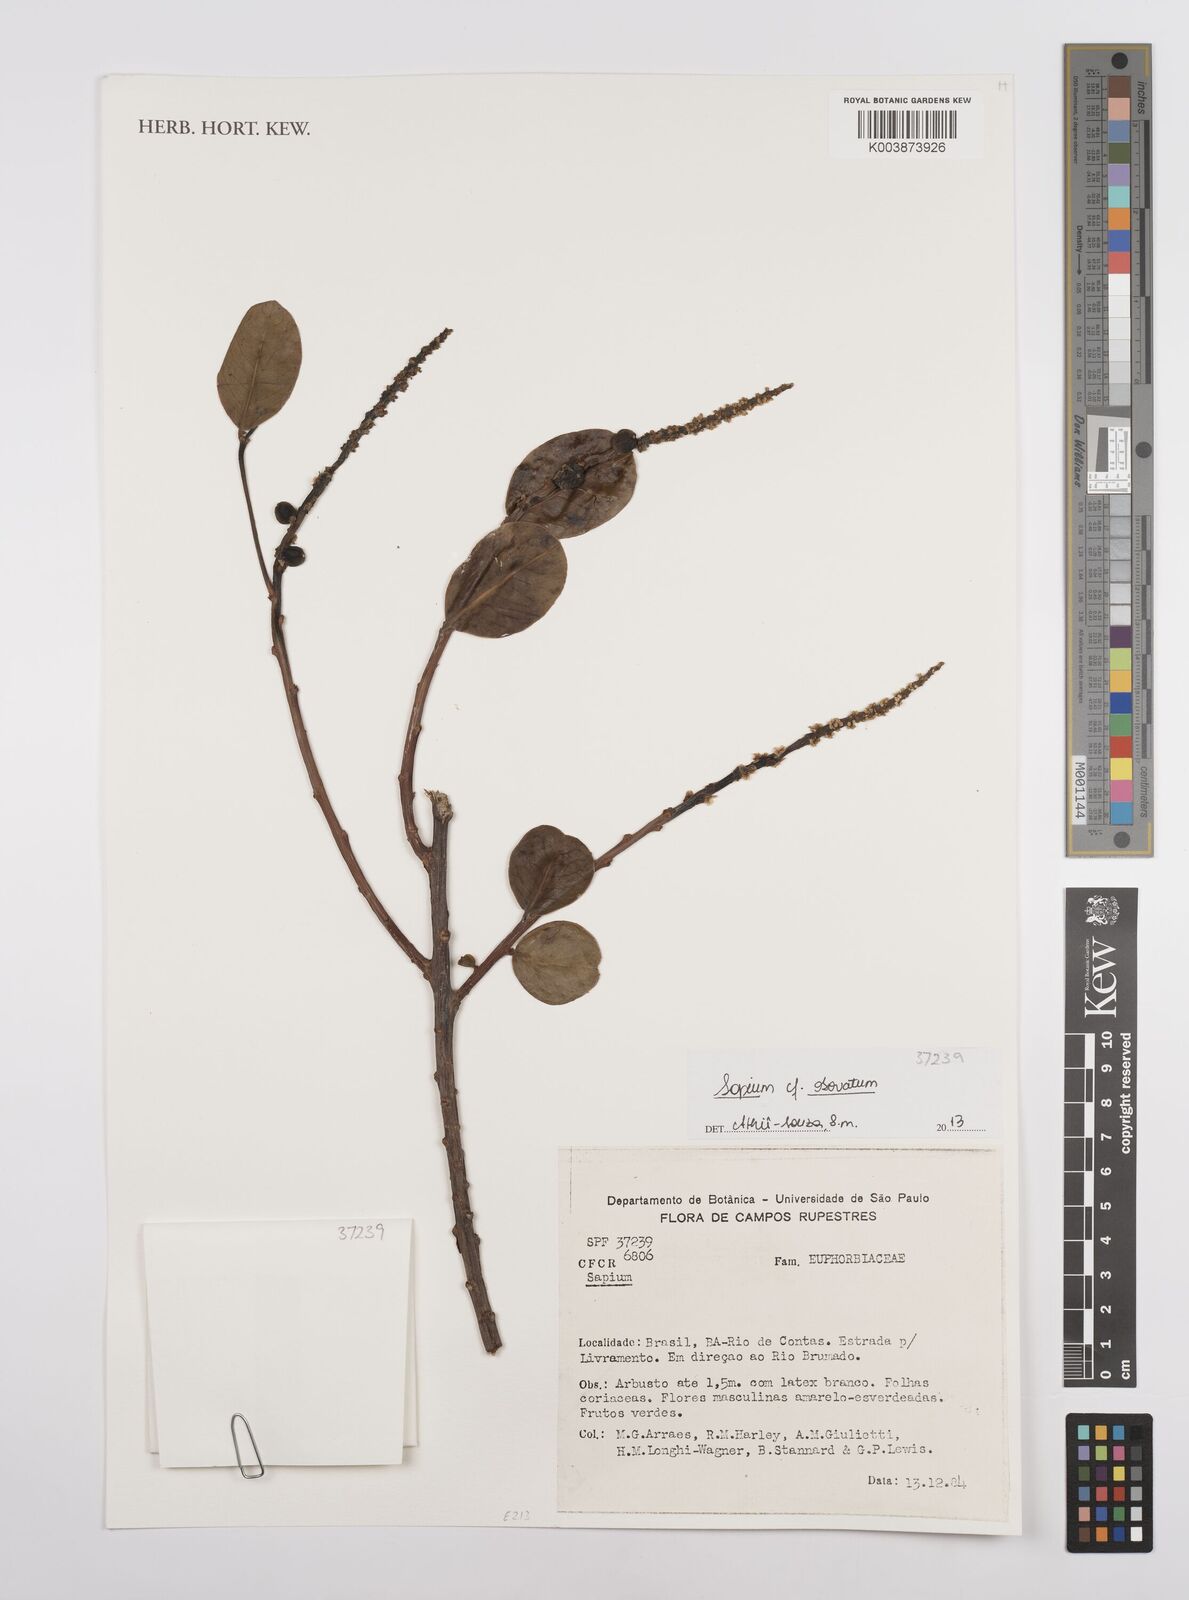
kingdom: Plantae
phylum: Tracheophyta
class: Magnoliopsida
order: Malpighiales
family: Euphorbiaceae
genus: Sapium
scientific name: Sapium obovatum
